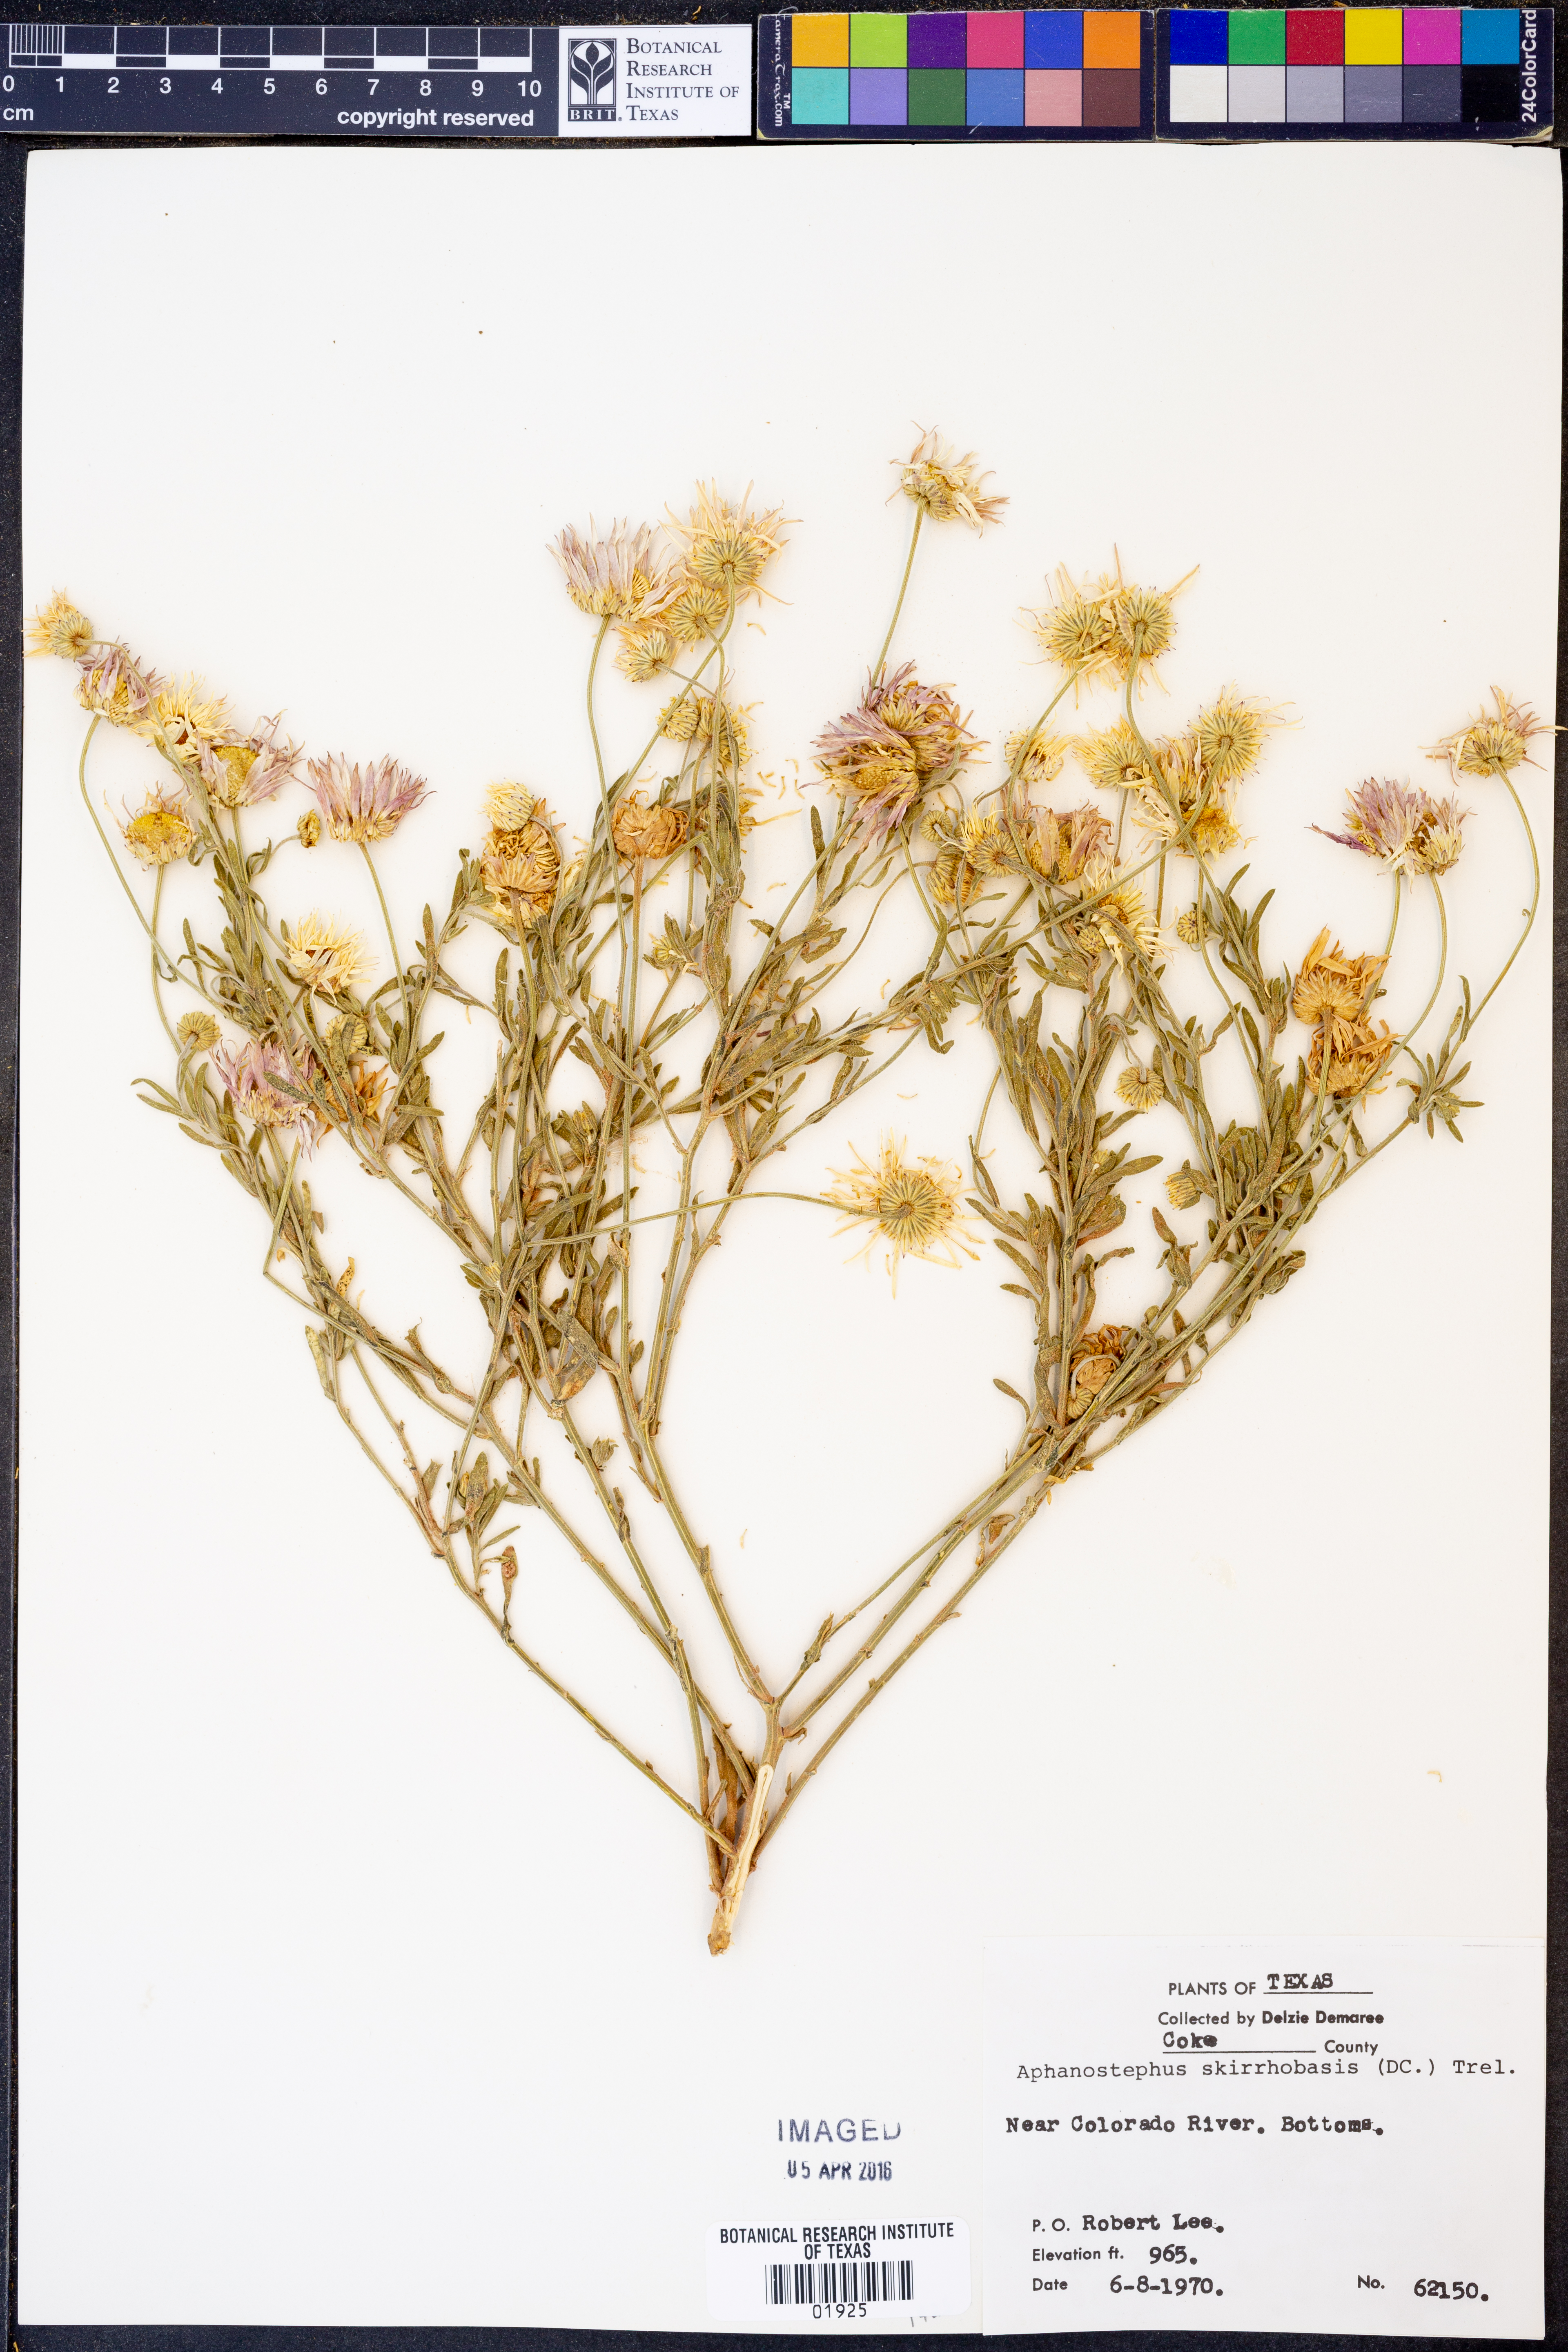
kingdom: Plantae
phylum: Tracheophyta
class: Magnoliopsida
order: Asterales
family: Asteraceae
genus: Aphanostephus
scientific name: Aphanostephus skirrhobasis
